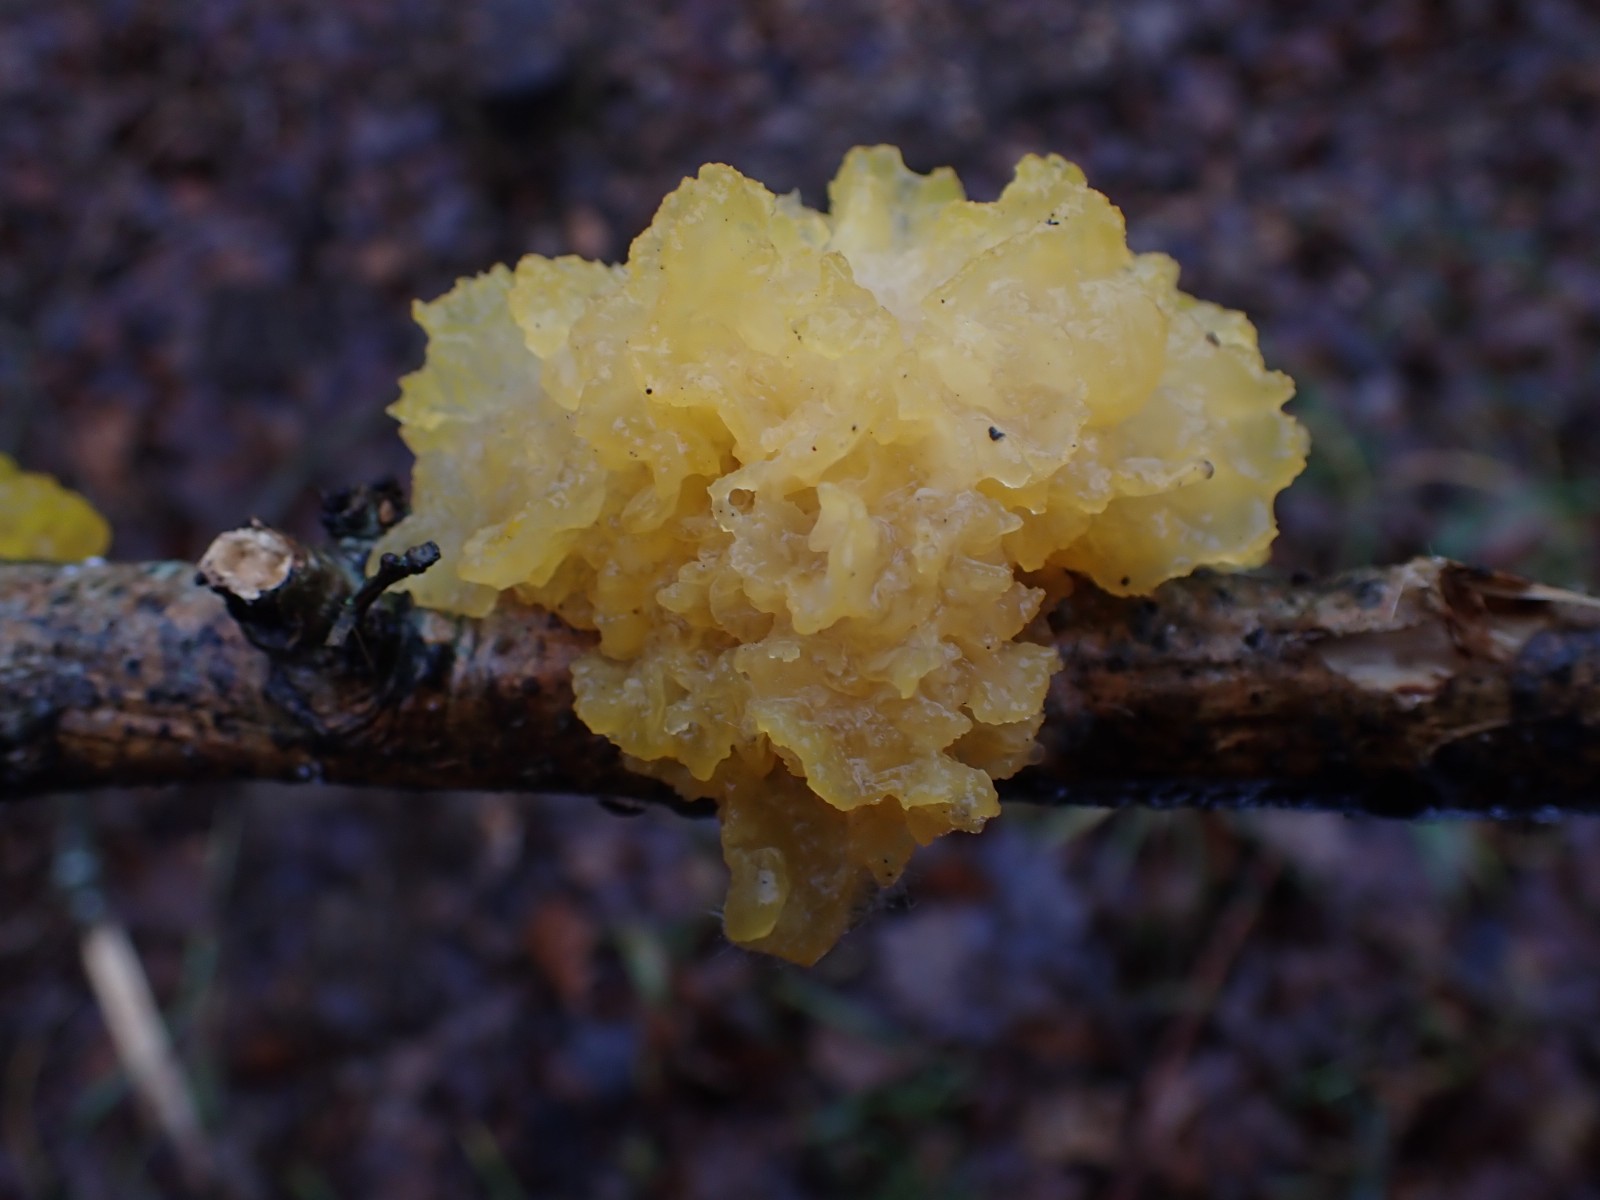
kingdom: Fungi
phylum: Basidiomycota
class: Tremellomycetes
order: Tremellales
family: Tremellaceae
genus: Tremella
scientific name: Tremella mesenterica
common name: gul bævresvamp
